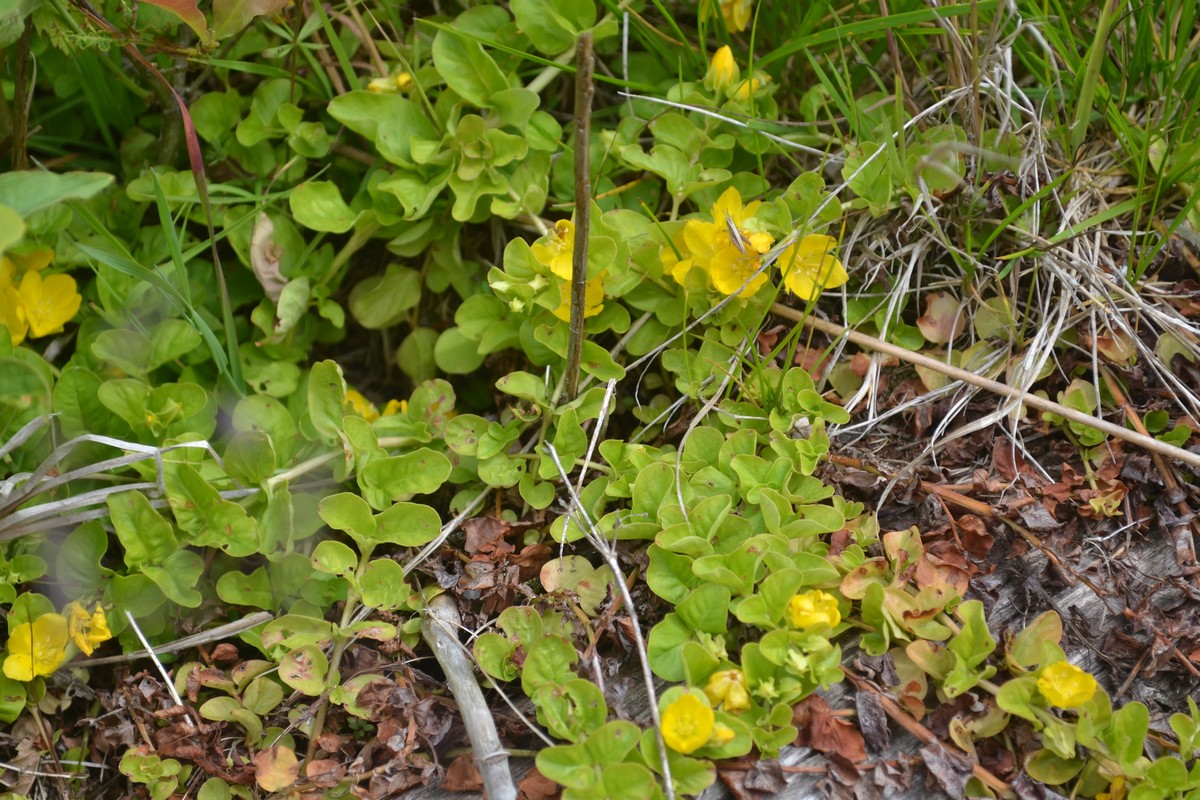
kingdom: Plantae
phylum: Tracheophyta
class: Magnoliopsida
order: Ericales
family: Primulaceae
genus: Lysimachia
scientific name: Lysimachia nummularia
